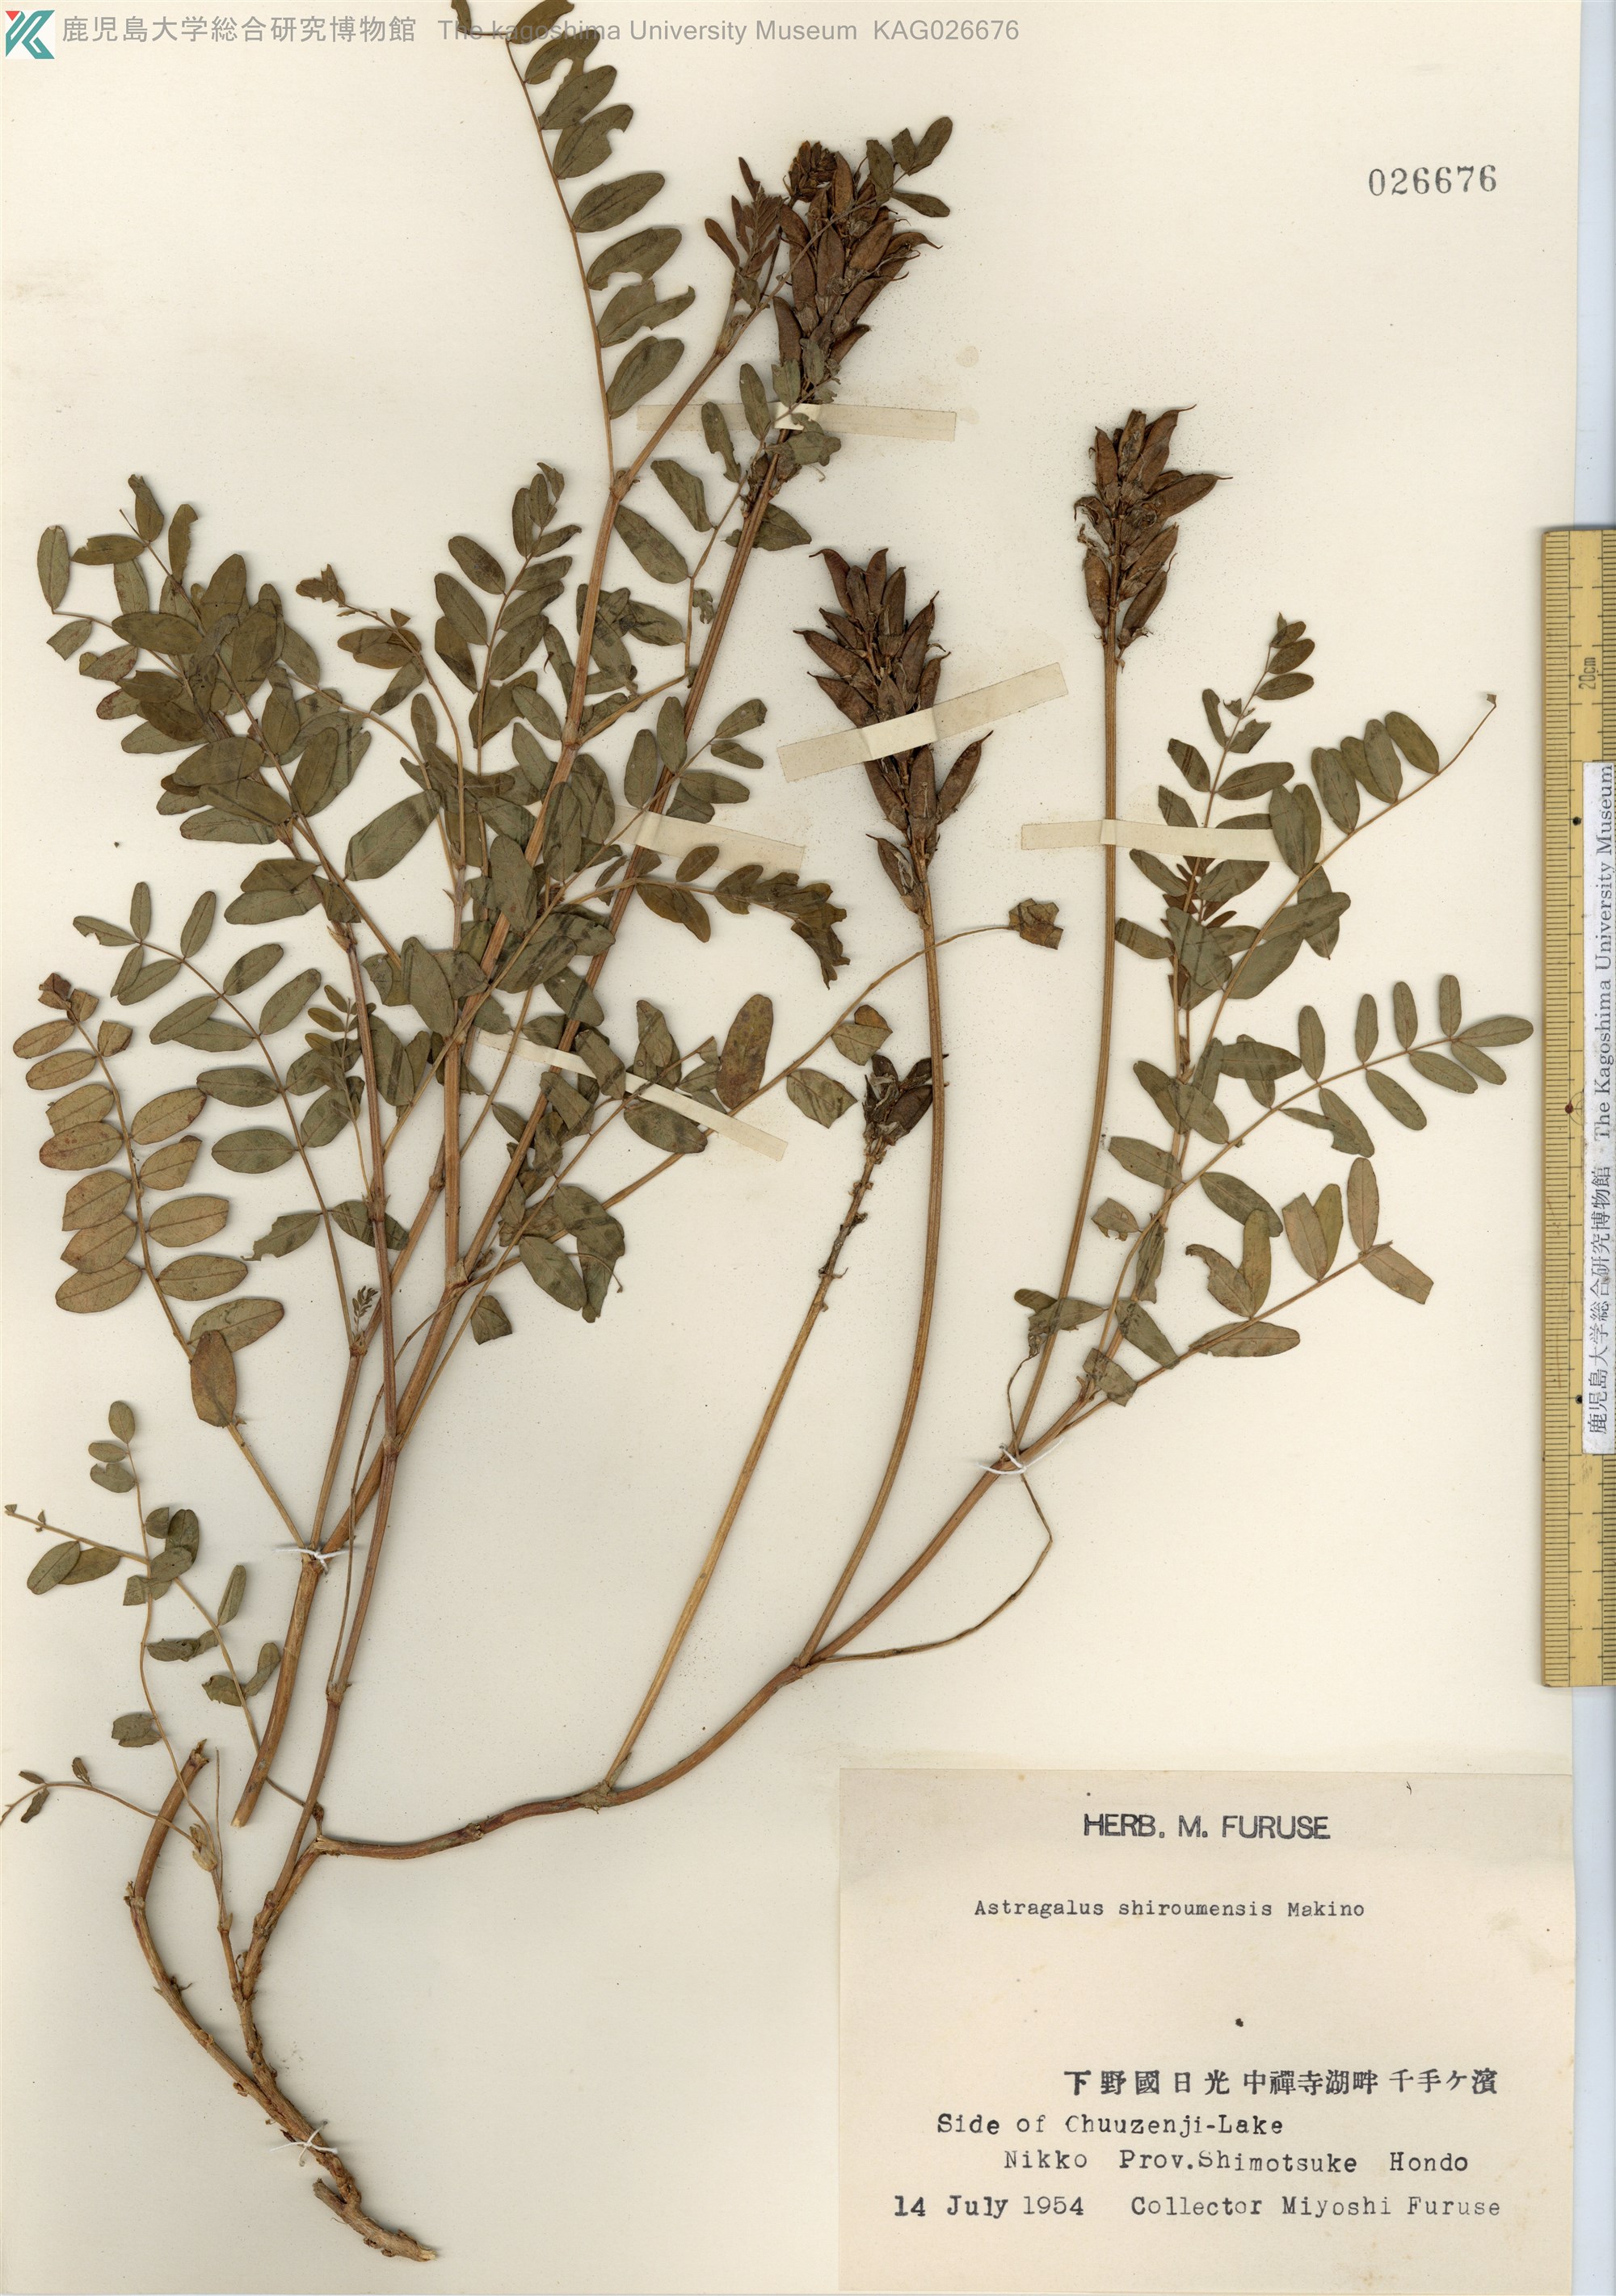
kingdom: Plantae
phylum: Tracheophyta
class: Magnoliopsida
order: Fabales
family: Fabaceae
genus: Astragalus
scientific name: Astragalus shiroumensis
